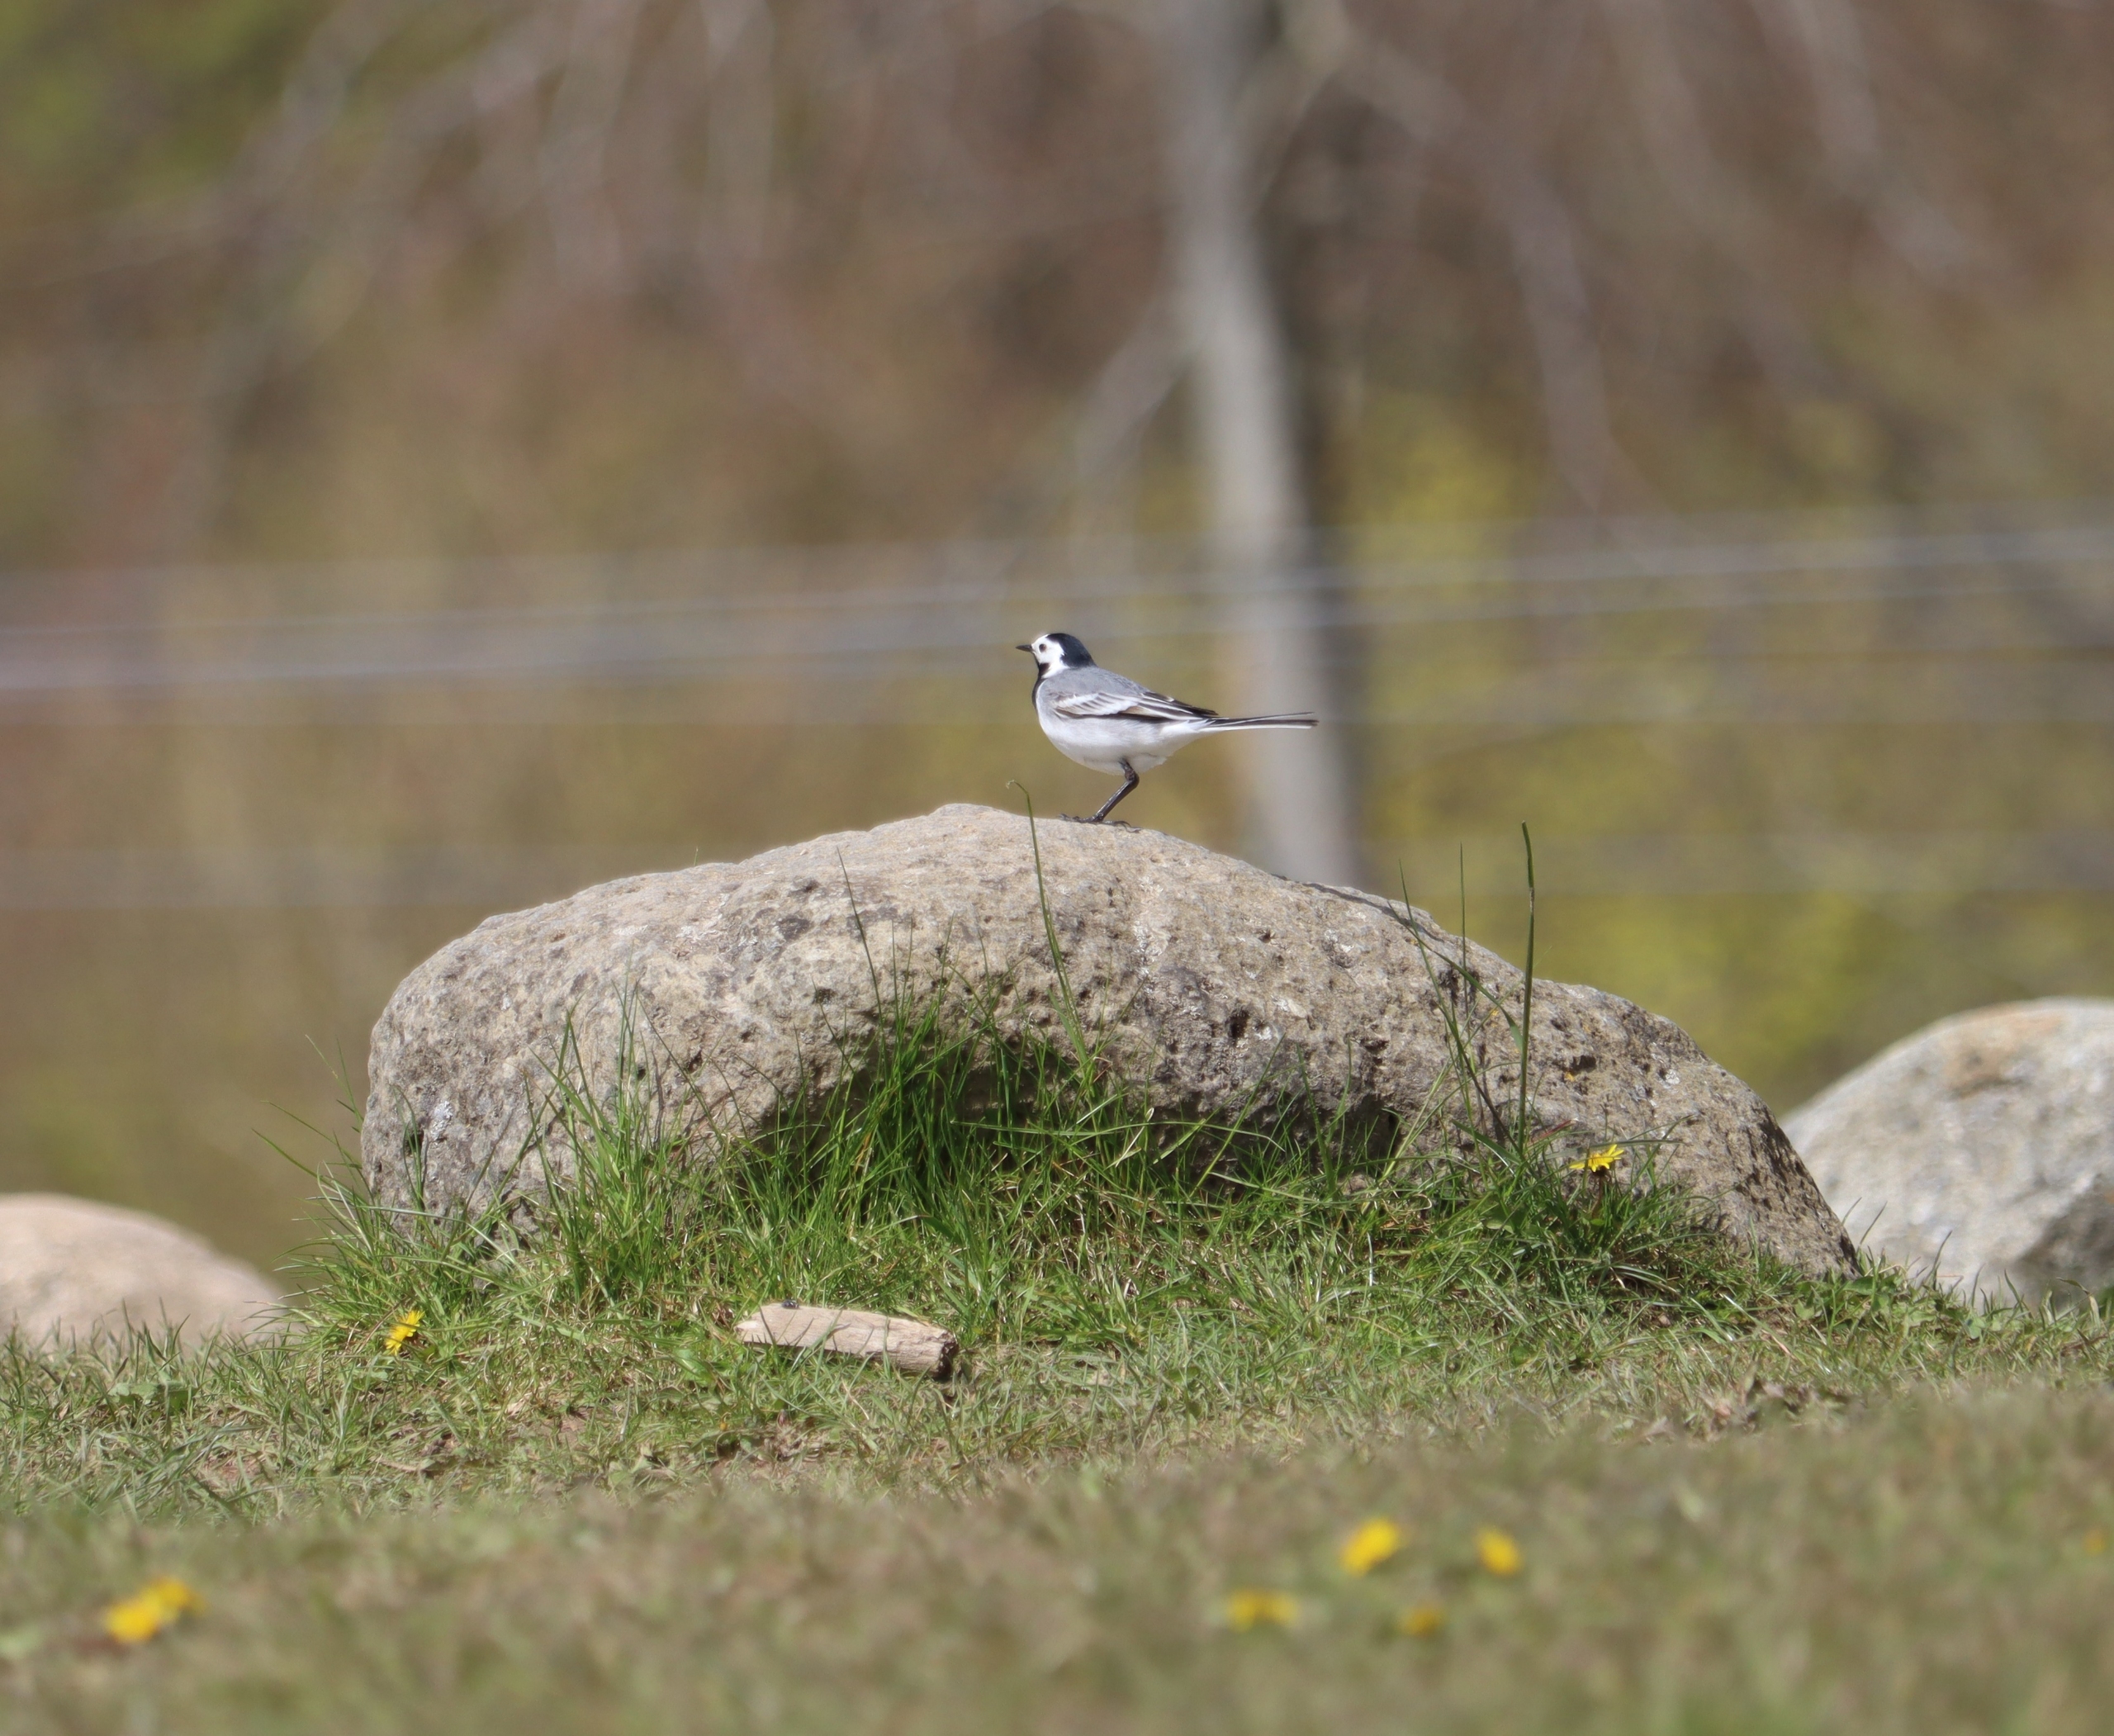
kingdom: Animalia
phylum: Chordata
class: Aves
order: Passeriformes
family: Motacillidae
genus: Motacilla
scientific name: Motacilla alba
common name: Hvid vipstjert
